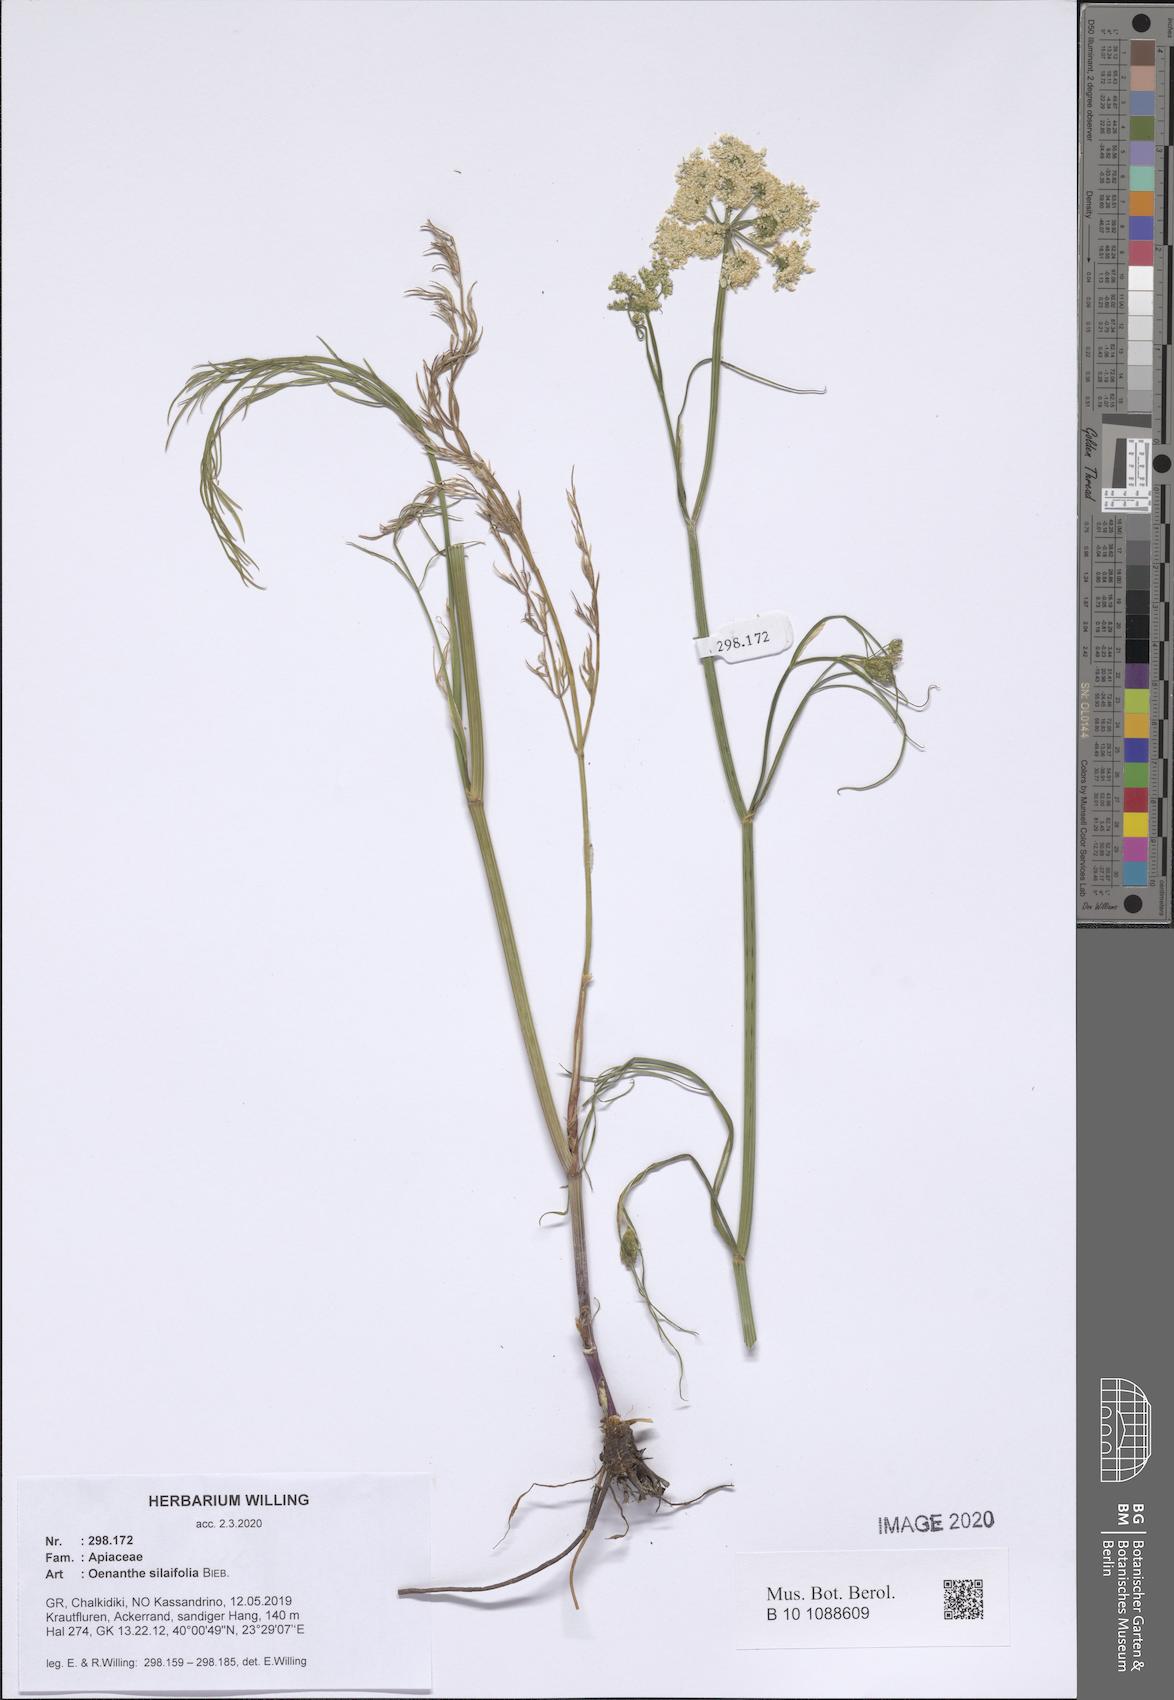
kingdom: Plantae
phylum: Tracheophyta
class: Magnoliopsida
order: Apiales
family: Apiaceae
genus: Oenanthe
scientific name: Oenanthe silaifolia
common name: Narrow-leaved water-dropwort
